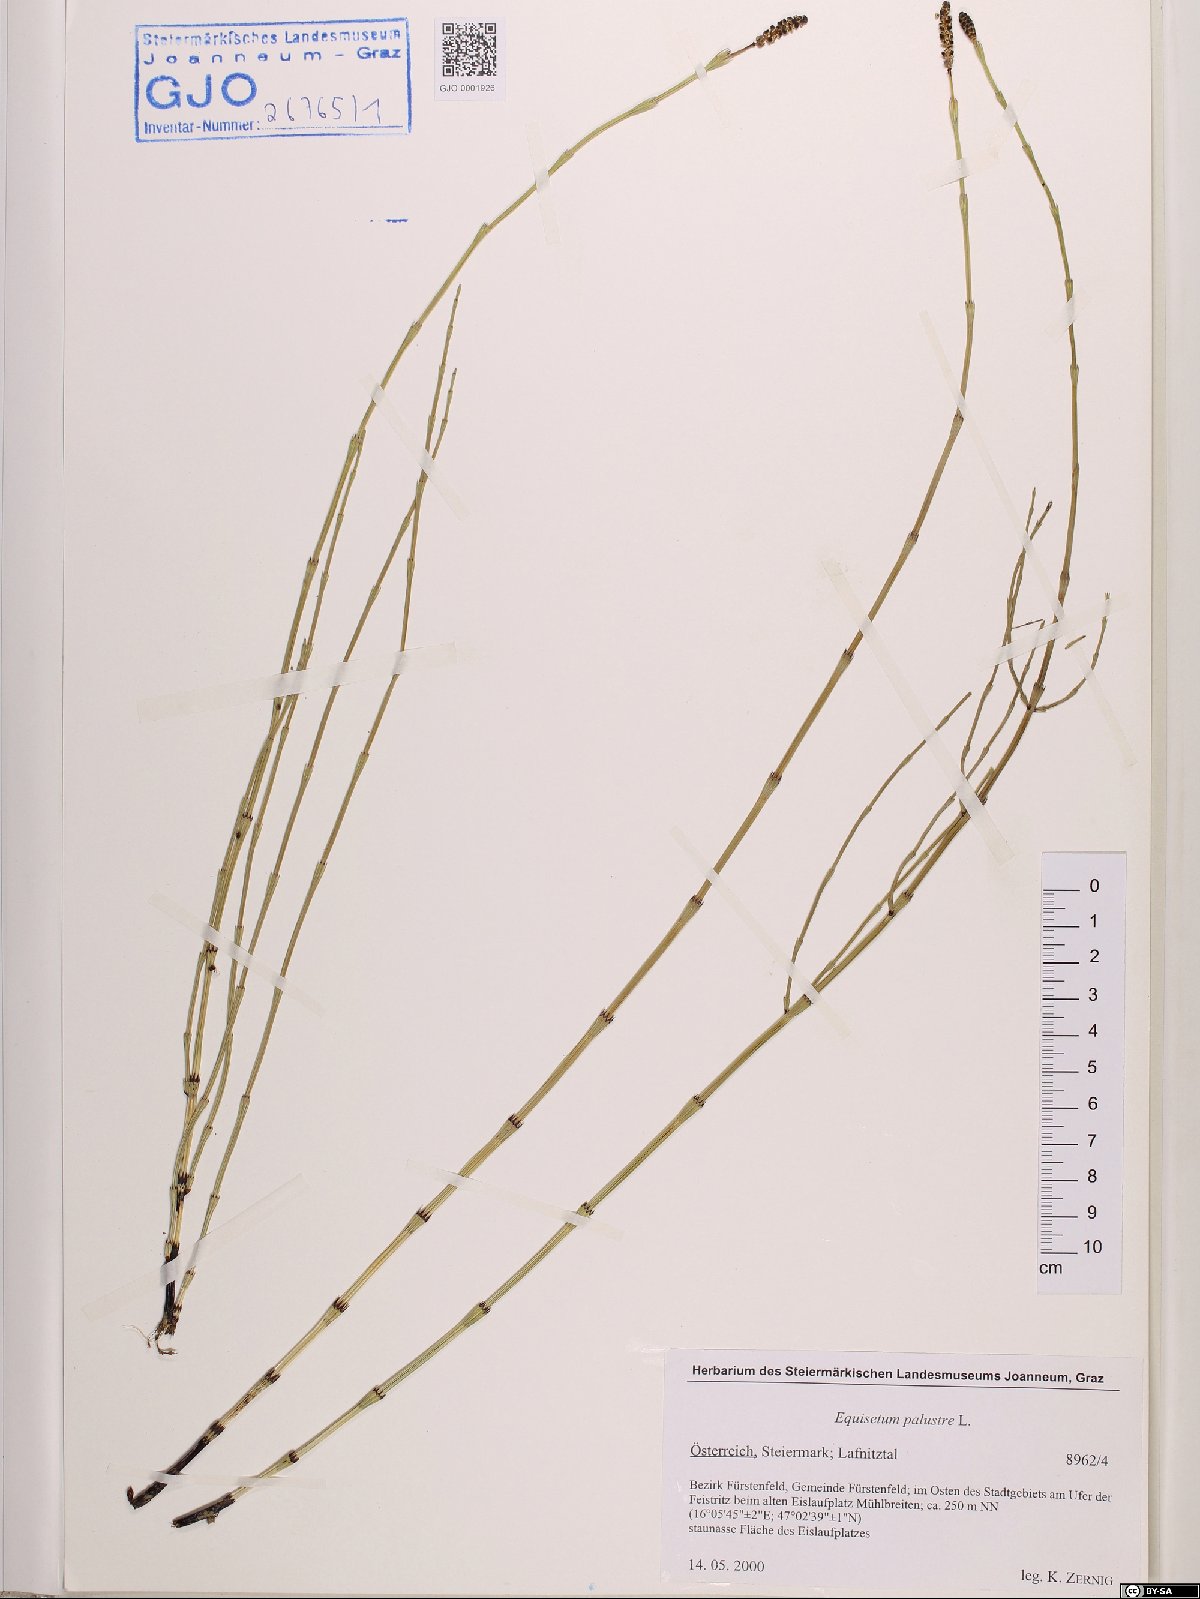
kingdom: Plantae
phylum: Tracheophyta
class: Polypodiopsida
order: Equisetales
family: Equisetaceae
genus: Equisetum
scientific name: Equisetum palustre
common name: Marsh horsetail
